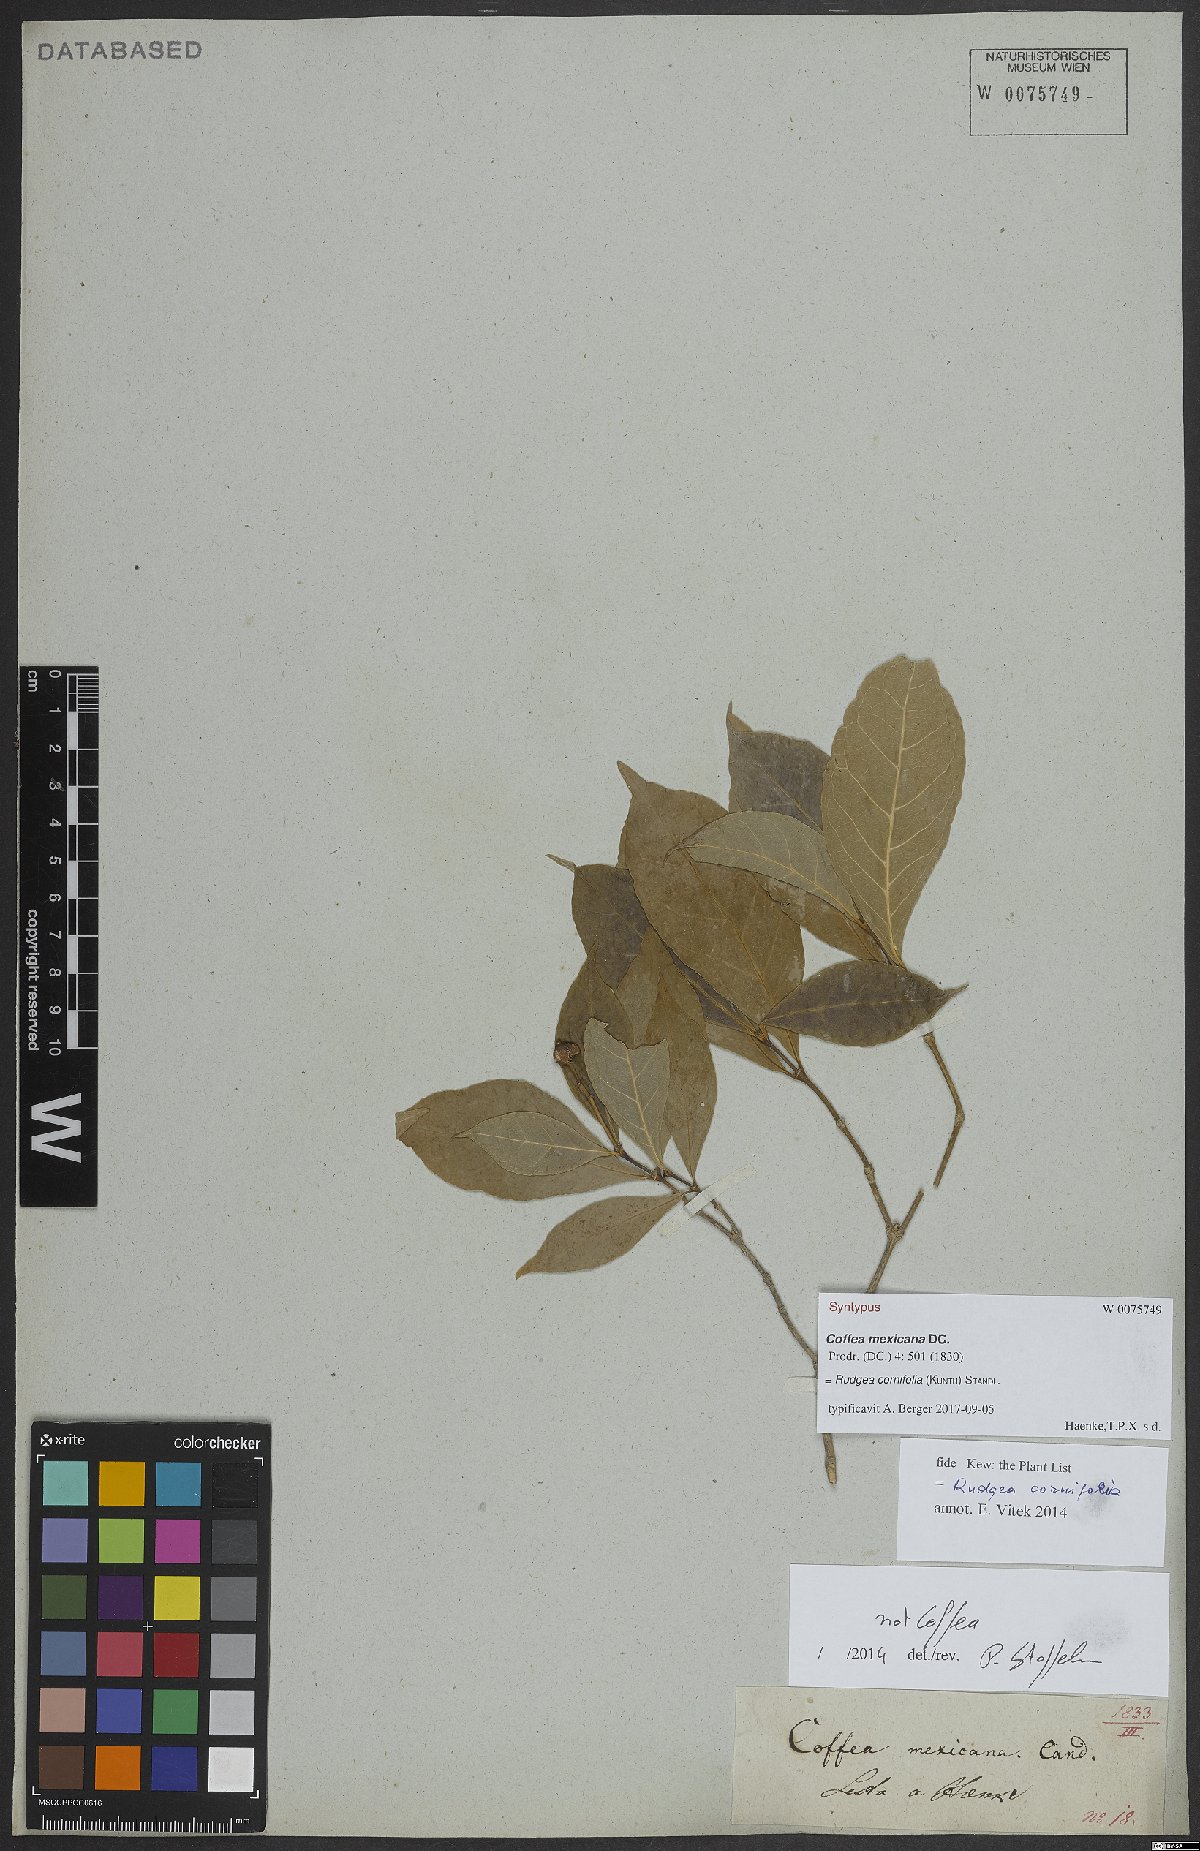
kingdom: Plantae
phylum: Tracheophyta
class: Magnoliopsida
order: Gentianales
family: Rubiaceae
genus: Rudgea
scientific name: Rudgea cornifolia
